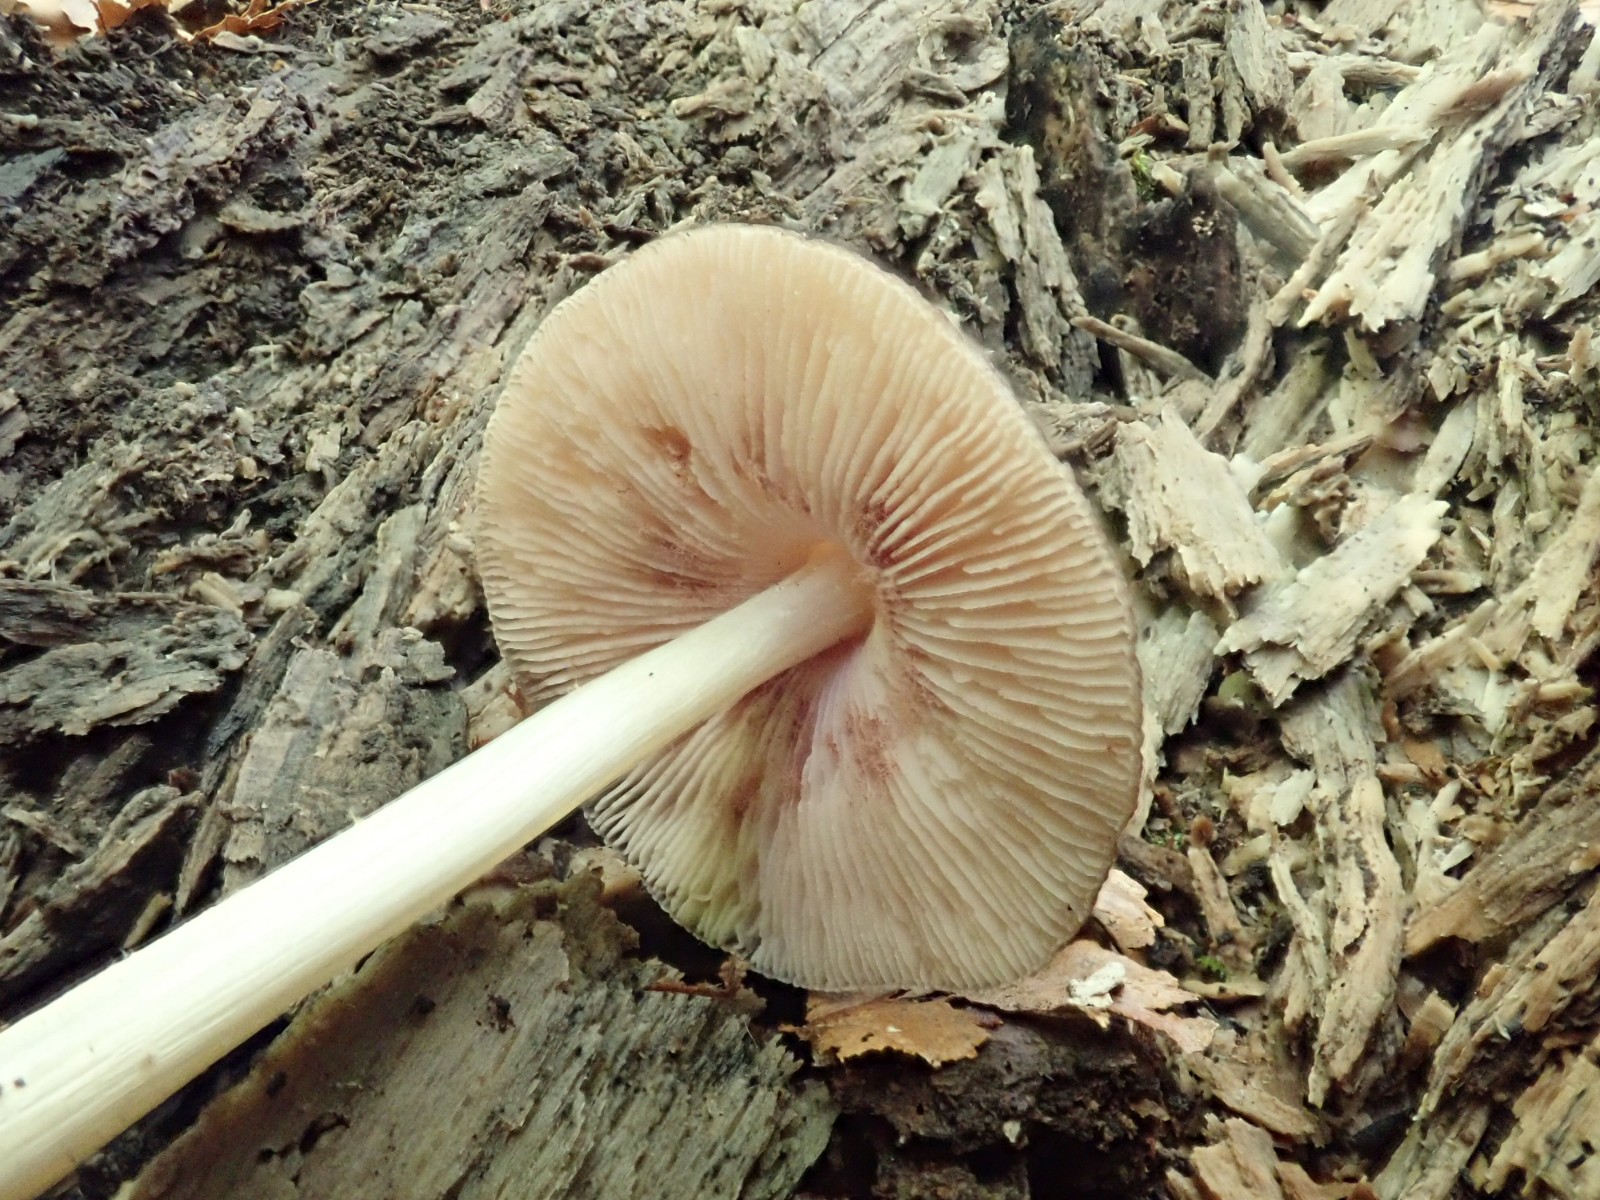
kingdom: Fungi
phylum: Basidiomycota
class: Agaricomycetes
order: Agaricales
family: Pluteaceae
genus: Pluteus
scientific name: Pluteus phlebophorus
